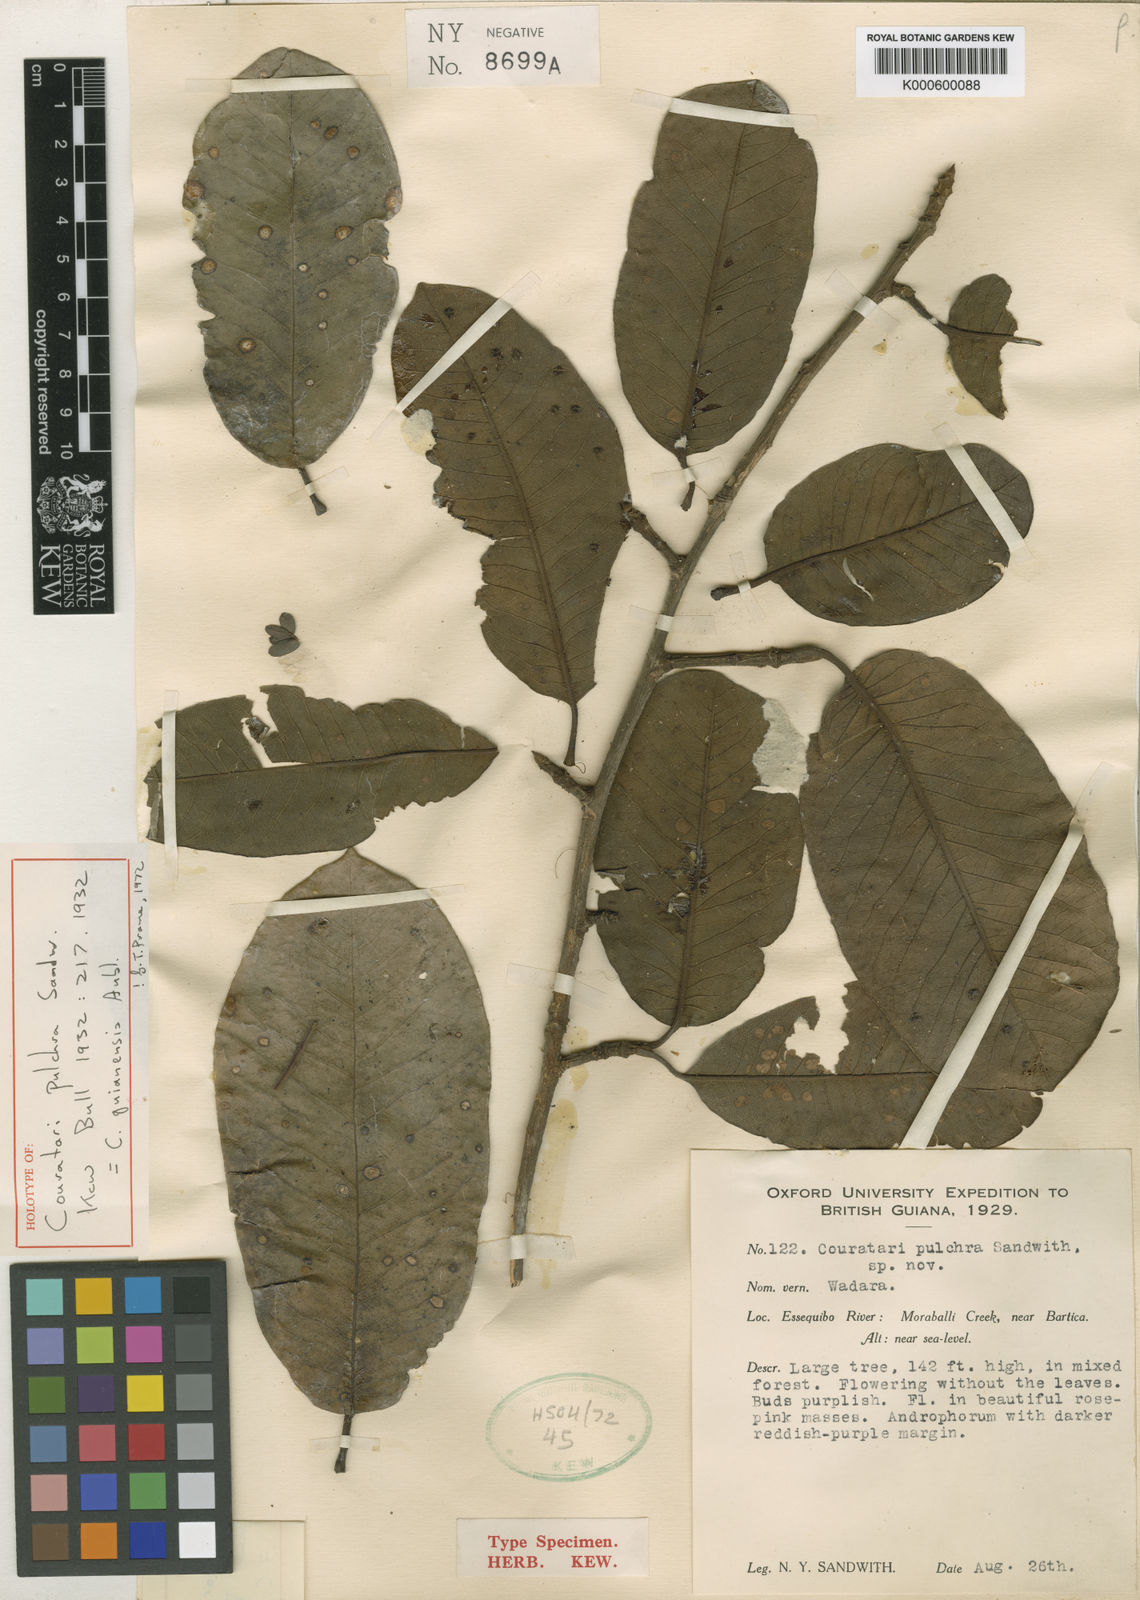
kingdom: Plantae
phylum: Tracheophyta
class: Magnoliopsida
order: Ericales
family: Lecythidaceae
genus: Couratari
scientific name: Couratari guianensis
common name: Fine-leaf wadara
